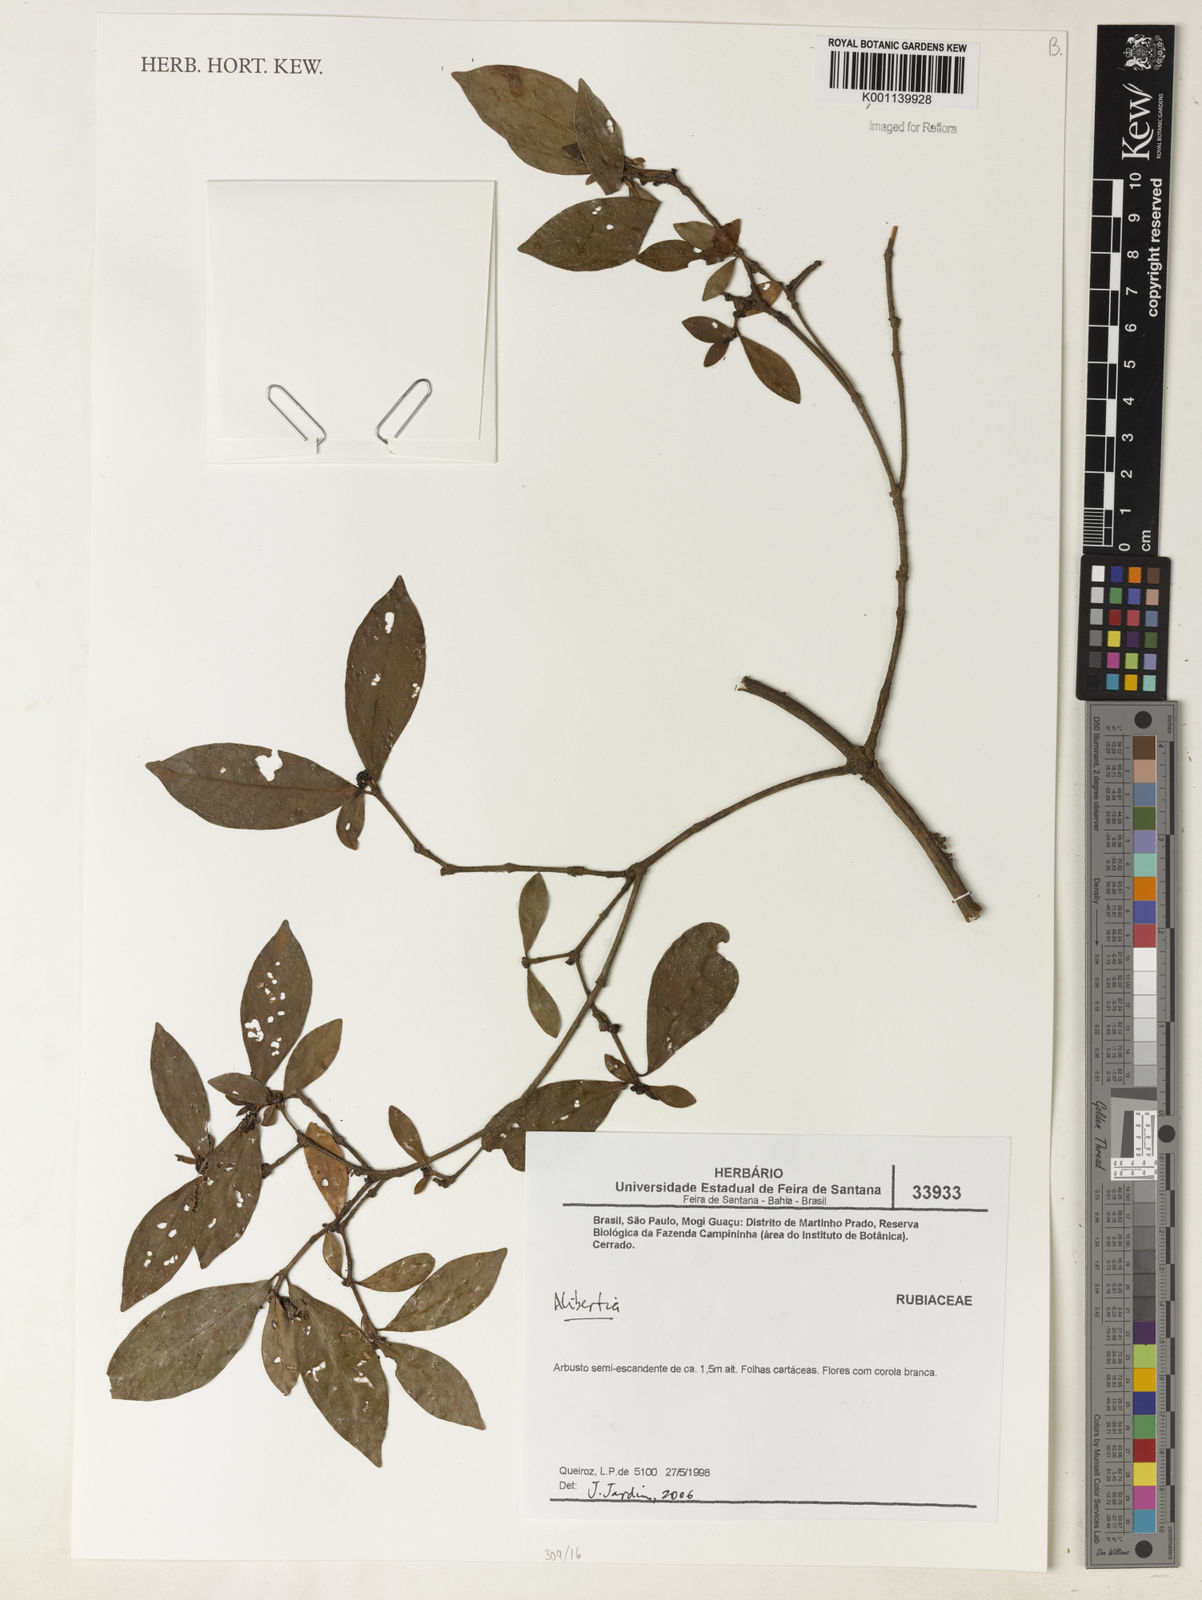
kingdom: Plantae
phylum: Tracheophyta
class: Magnoliopsida
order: Gentianales
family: Rubiaceae
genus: Alibertia
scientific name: Alibertia
